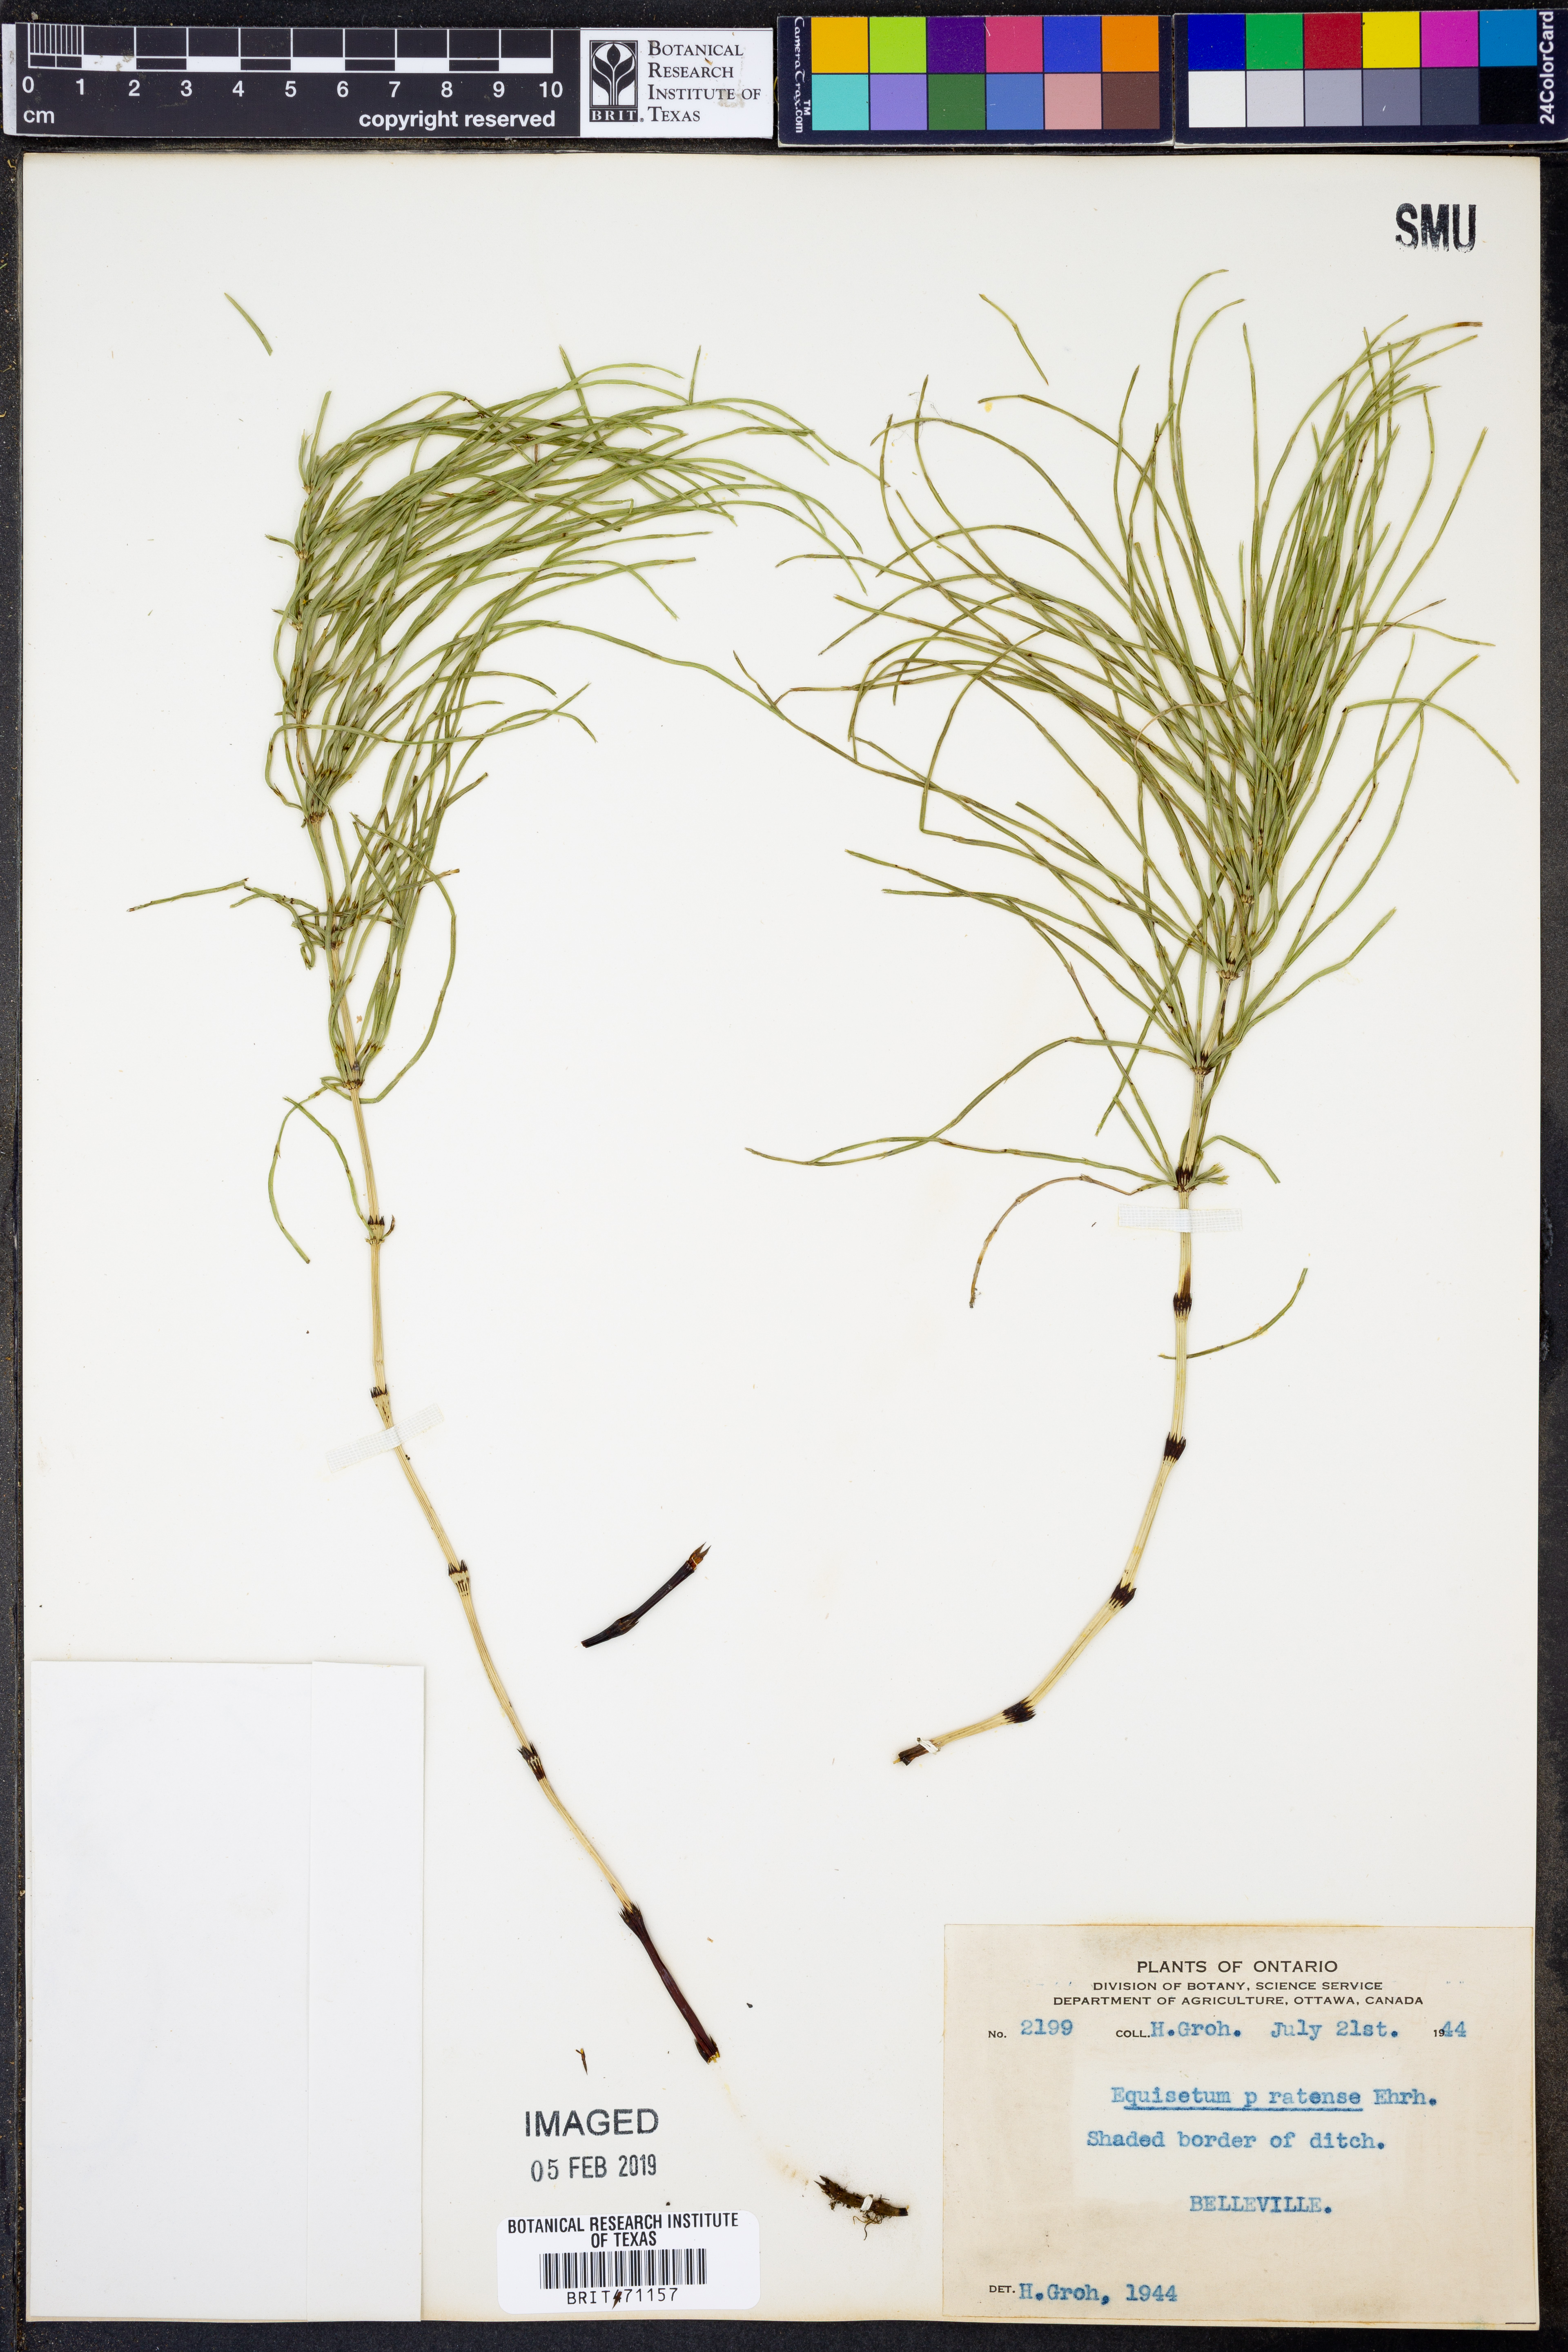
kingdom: Plantae
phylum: Tracheophyta
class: Polypodiopsida
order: Equisetales
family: Equisetaceae
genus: Equisetum
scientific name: Equisetum pratense
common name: Meadow horsetail
